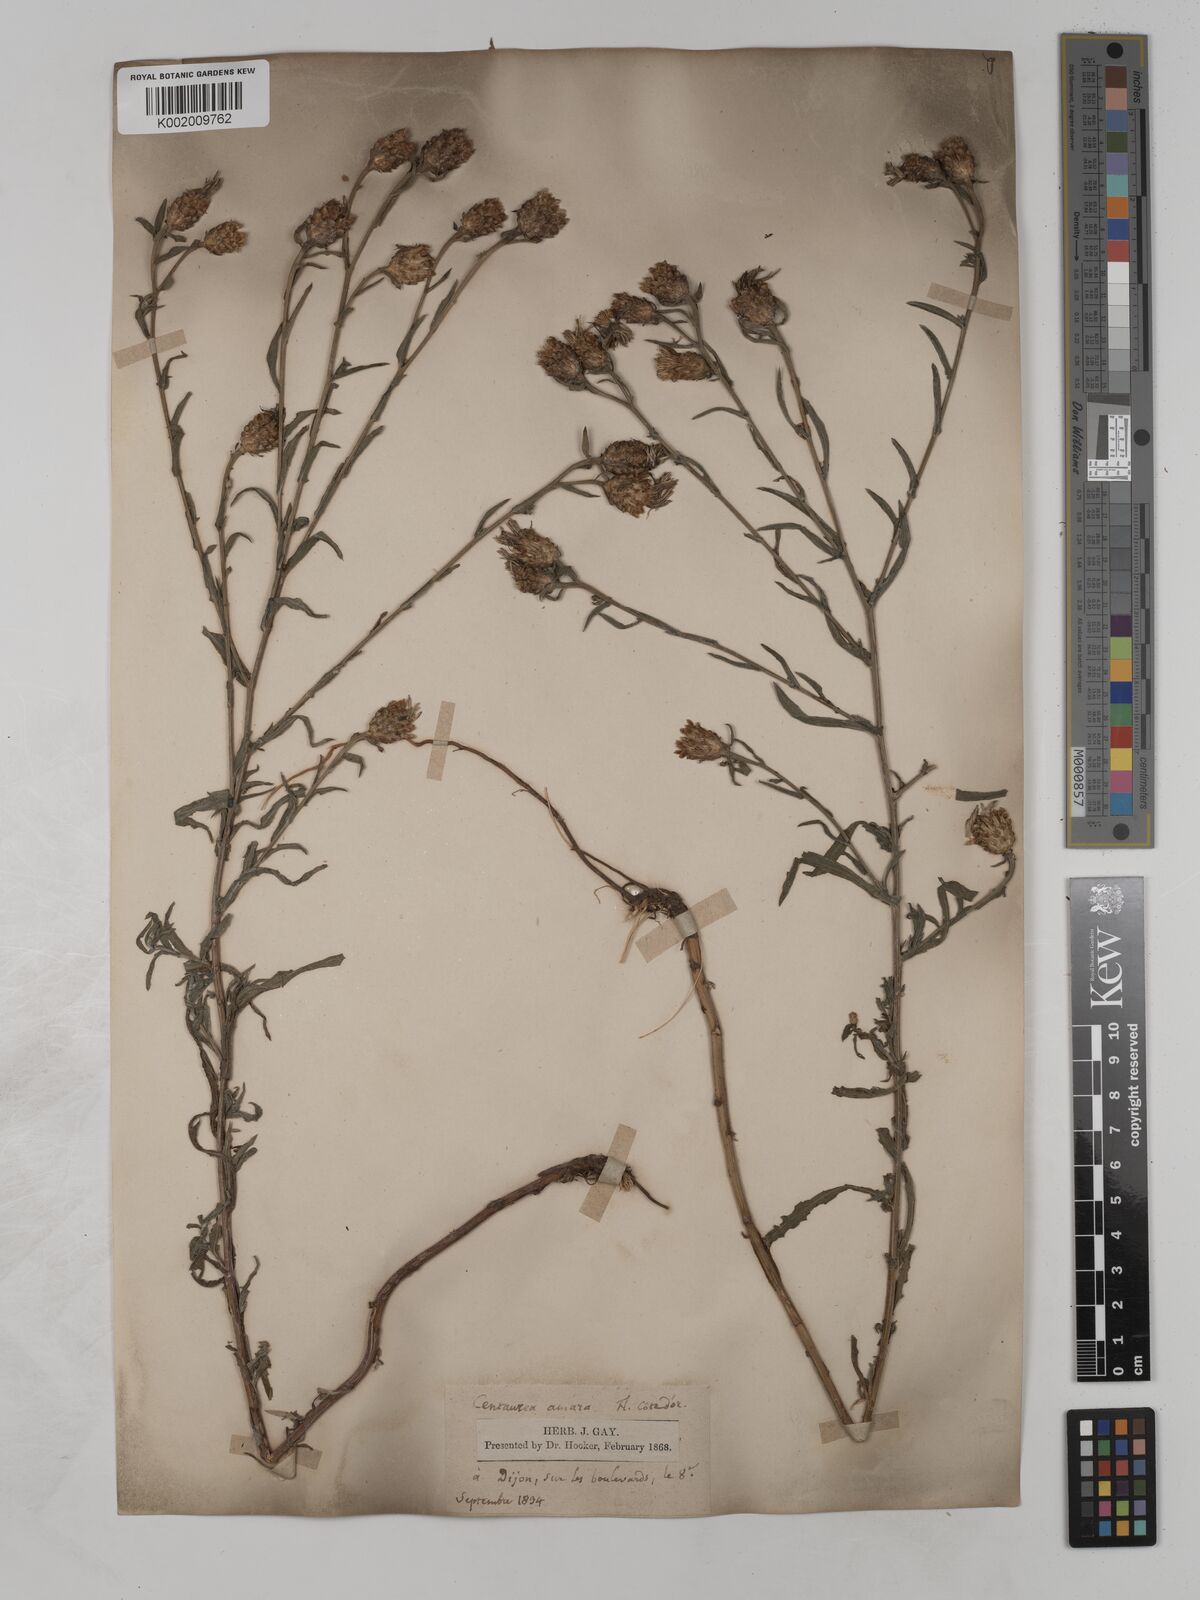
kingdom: Plantae
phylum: Tracheophyta
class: Magnoliopsida
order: Asterales
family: Asteraceae
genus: Centaurea
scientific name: Centaurea timbalii
